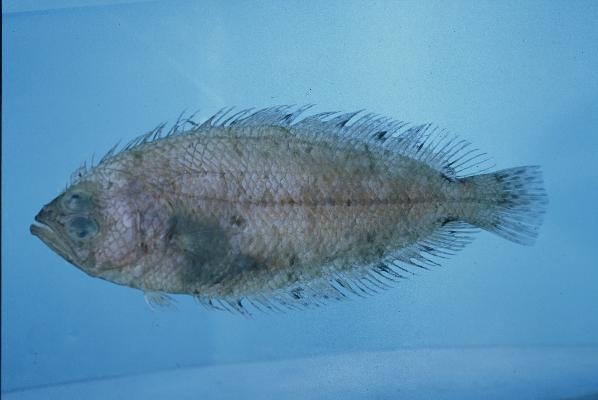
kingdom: Animalia
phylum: Chordata
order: Pleuronectiformes
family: Citharidae
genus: Citharoides
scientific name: Citharoides macrolepis
